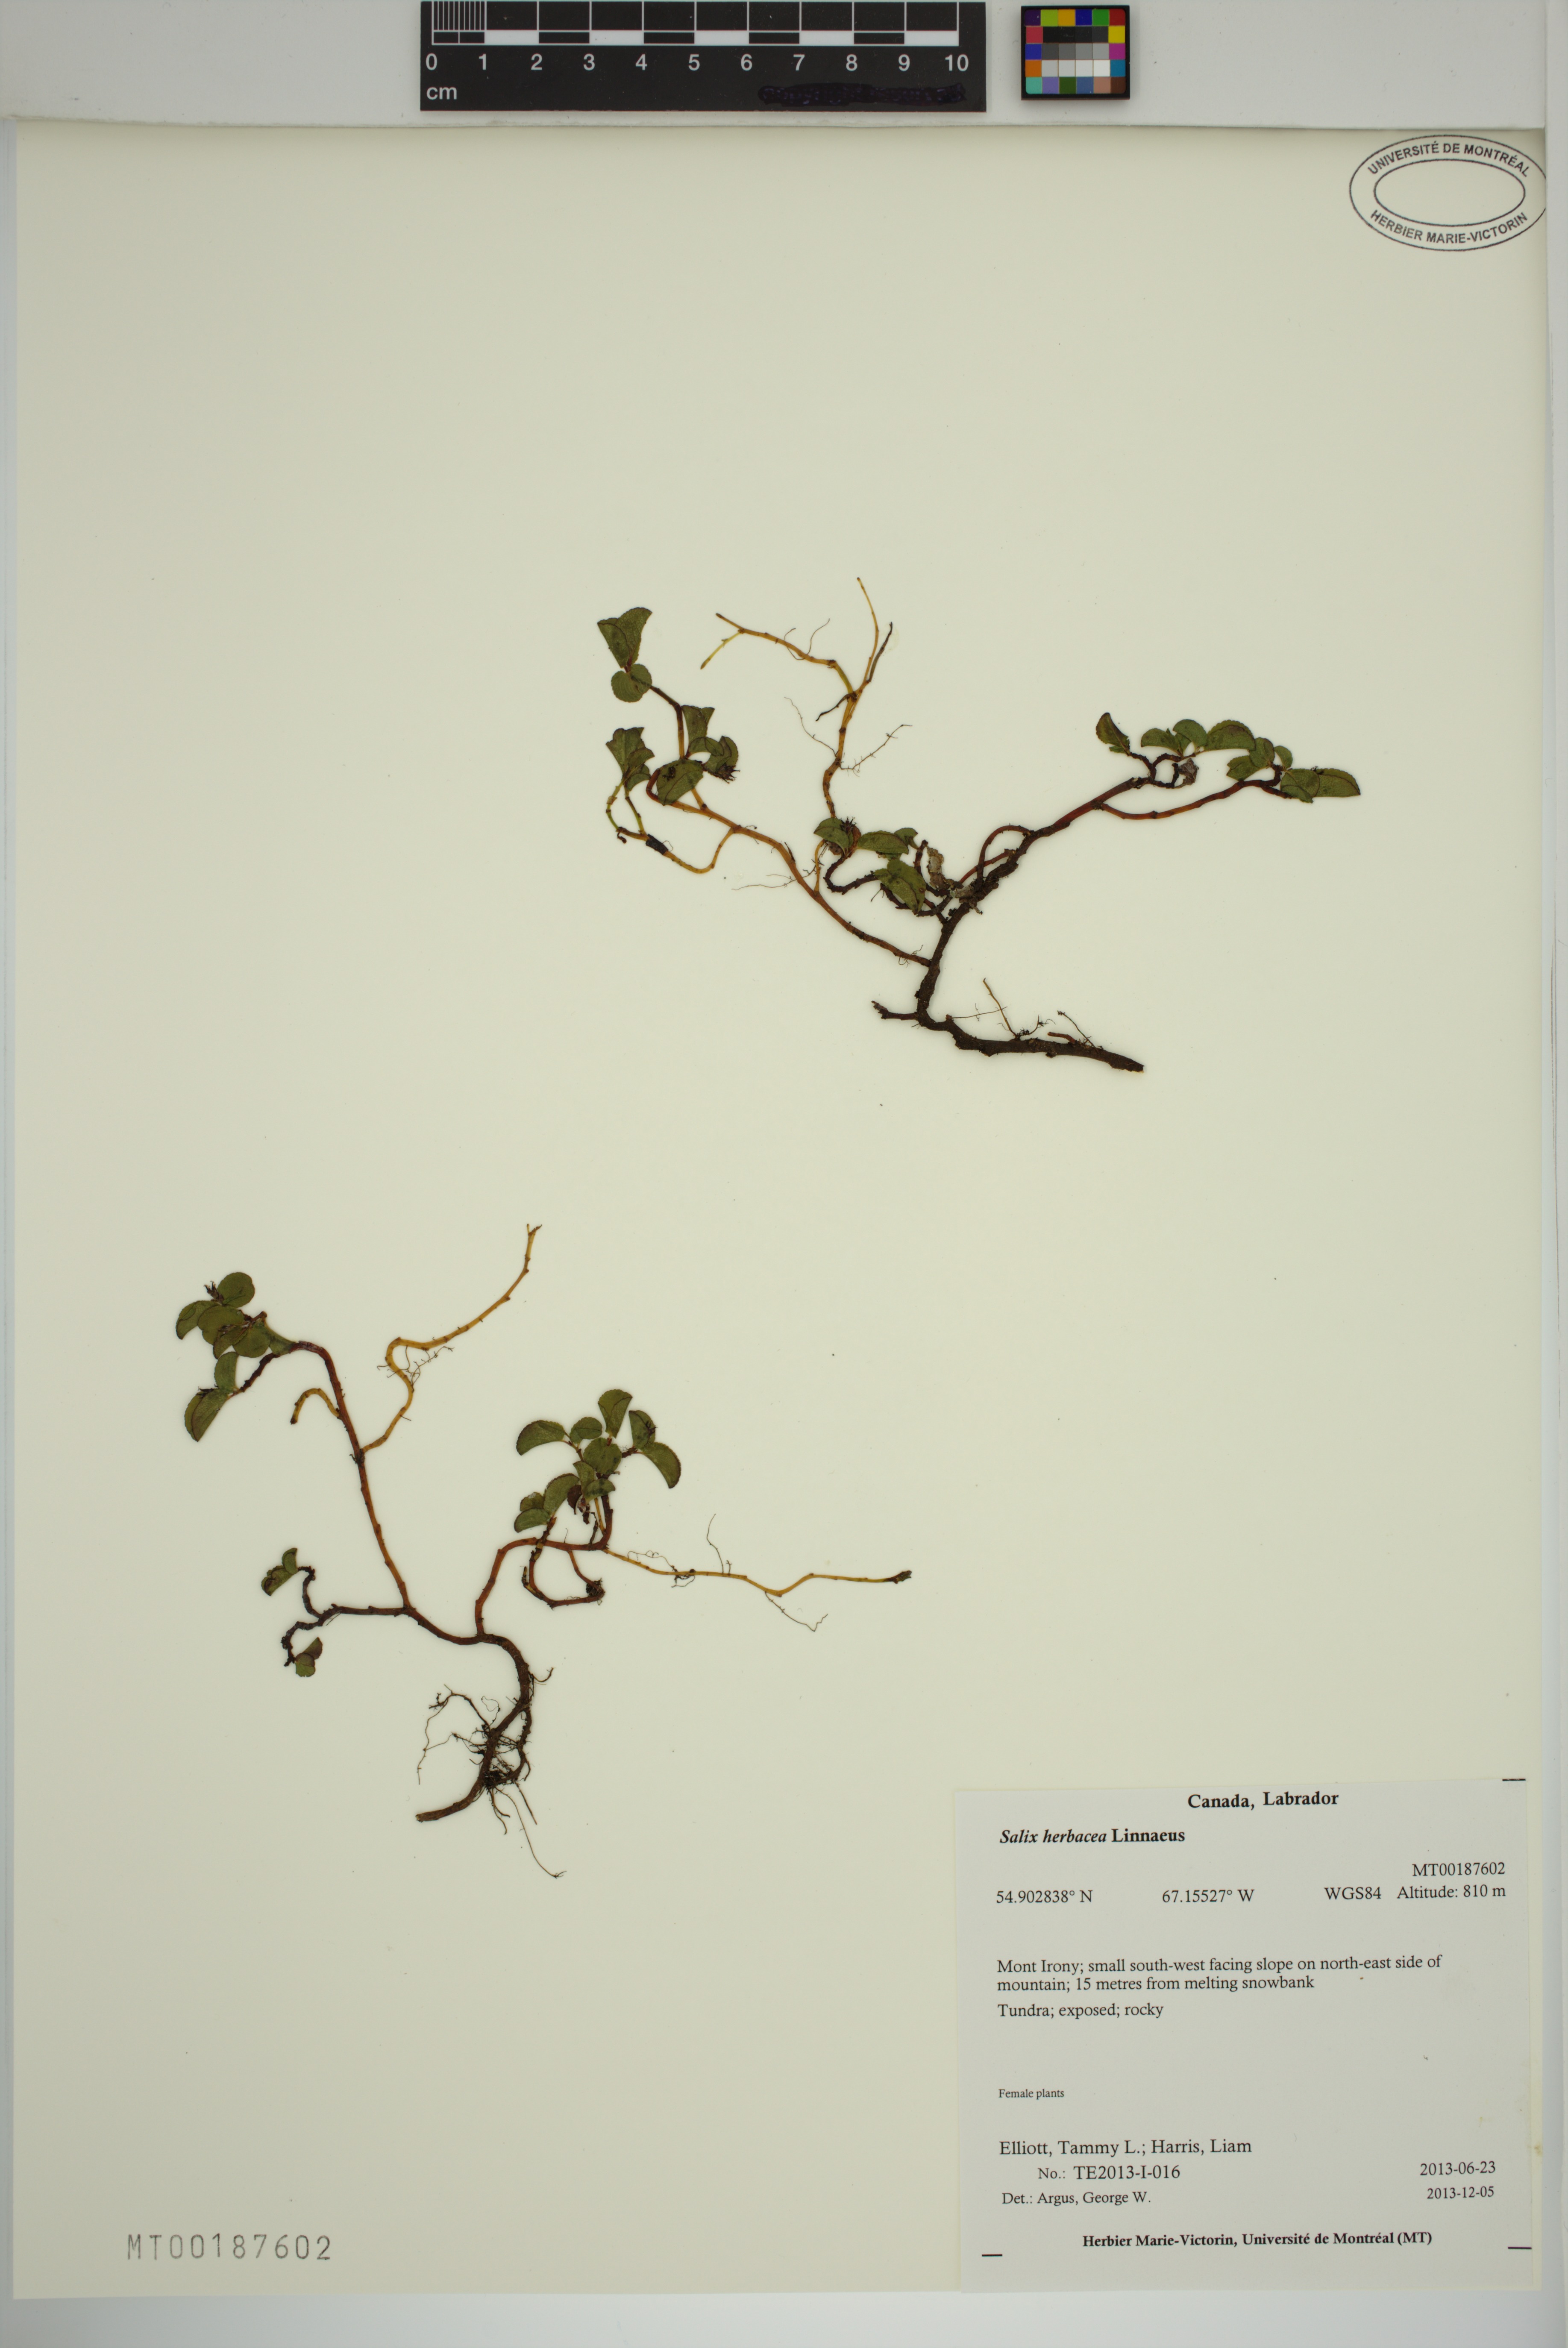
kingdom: Plantae
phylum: Tracheophyta
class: Magnoliopsida
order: Malpighiales
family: Salicaceae
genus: Salix
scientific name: Salix herbacea
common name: Dwarf willow
